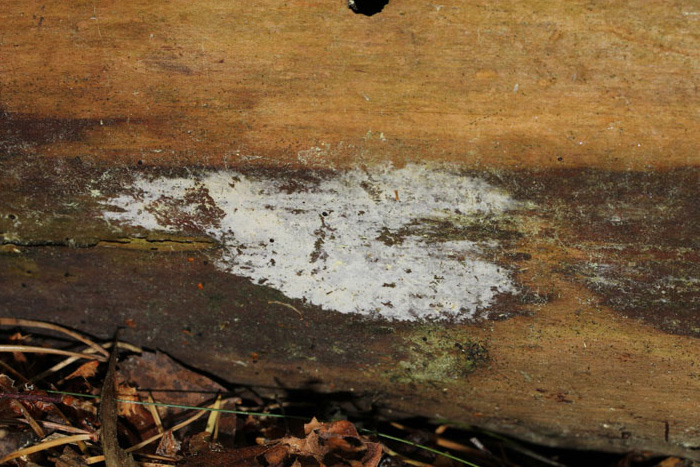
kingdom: Fungi
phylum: Basidiomycota
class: Agaricomycetes
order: Hymenochaetales
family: Schizoporaceae
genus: Xylodon
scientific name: Xylodon brevisetus
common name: tætvortet tandsvamp
